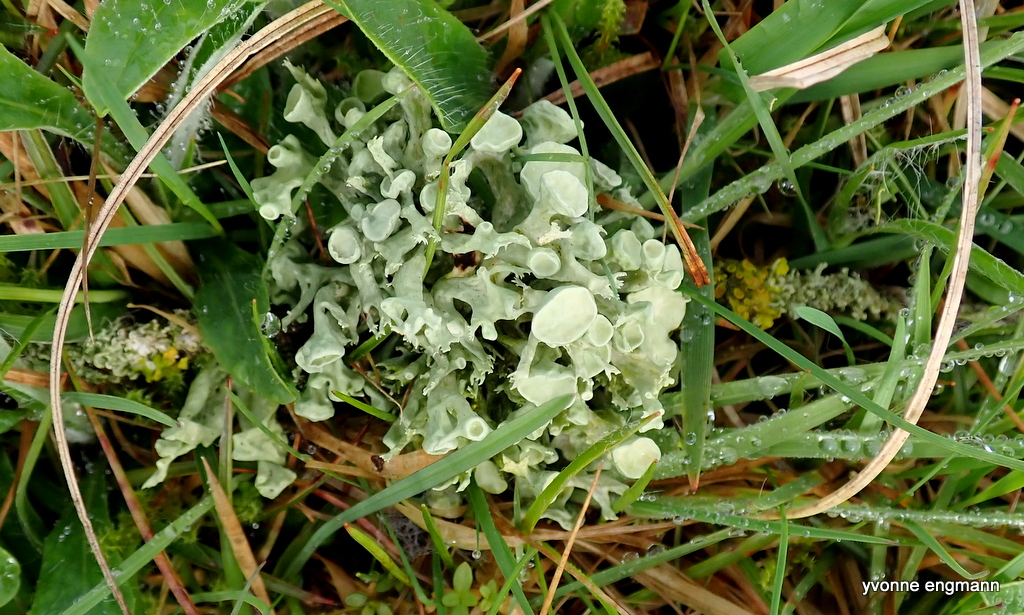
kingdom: Fungi
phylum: Ascomycota
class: Lecanoromycetes
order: Lecanorales
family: Ramalinaceae
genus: Ramalina
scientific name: Ramalina fastigiata
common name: tue-grenlav
